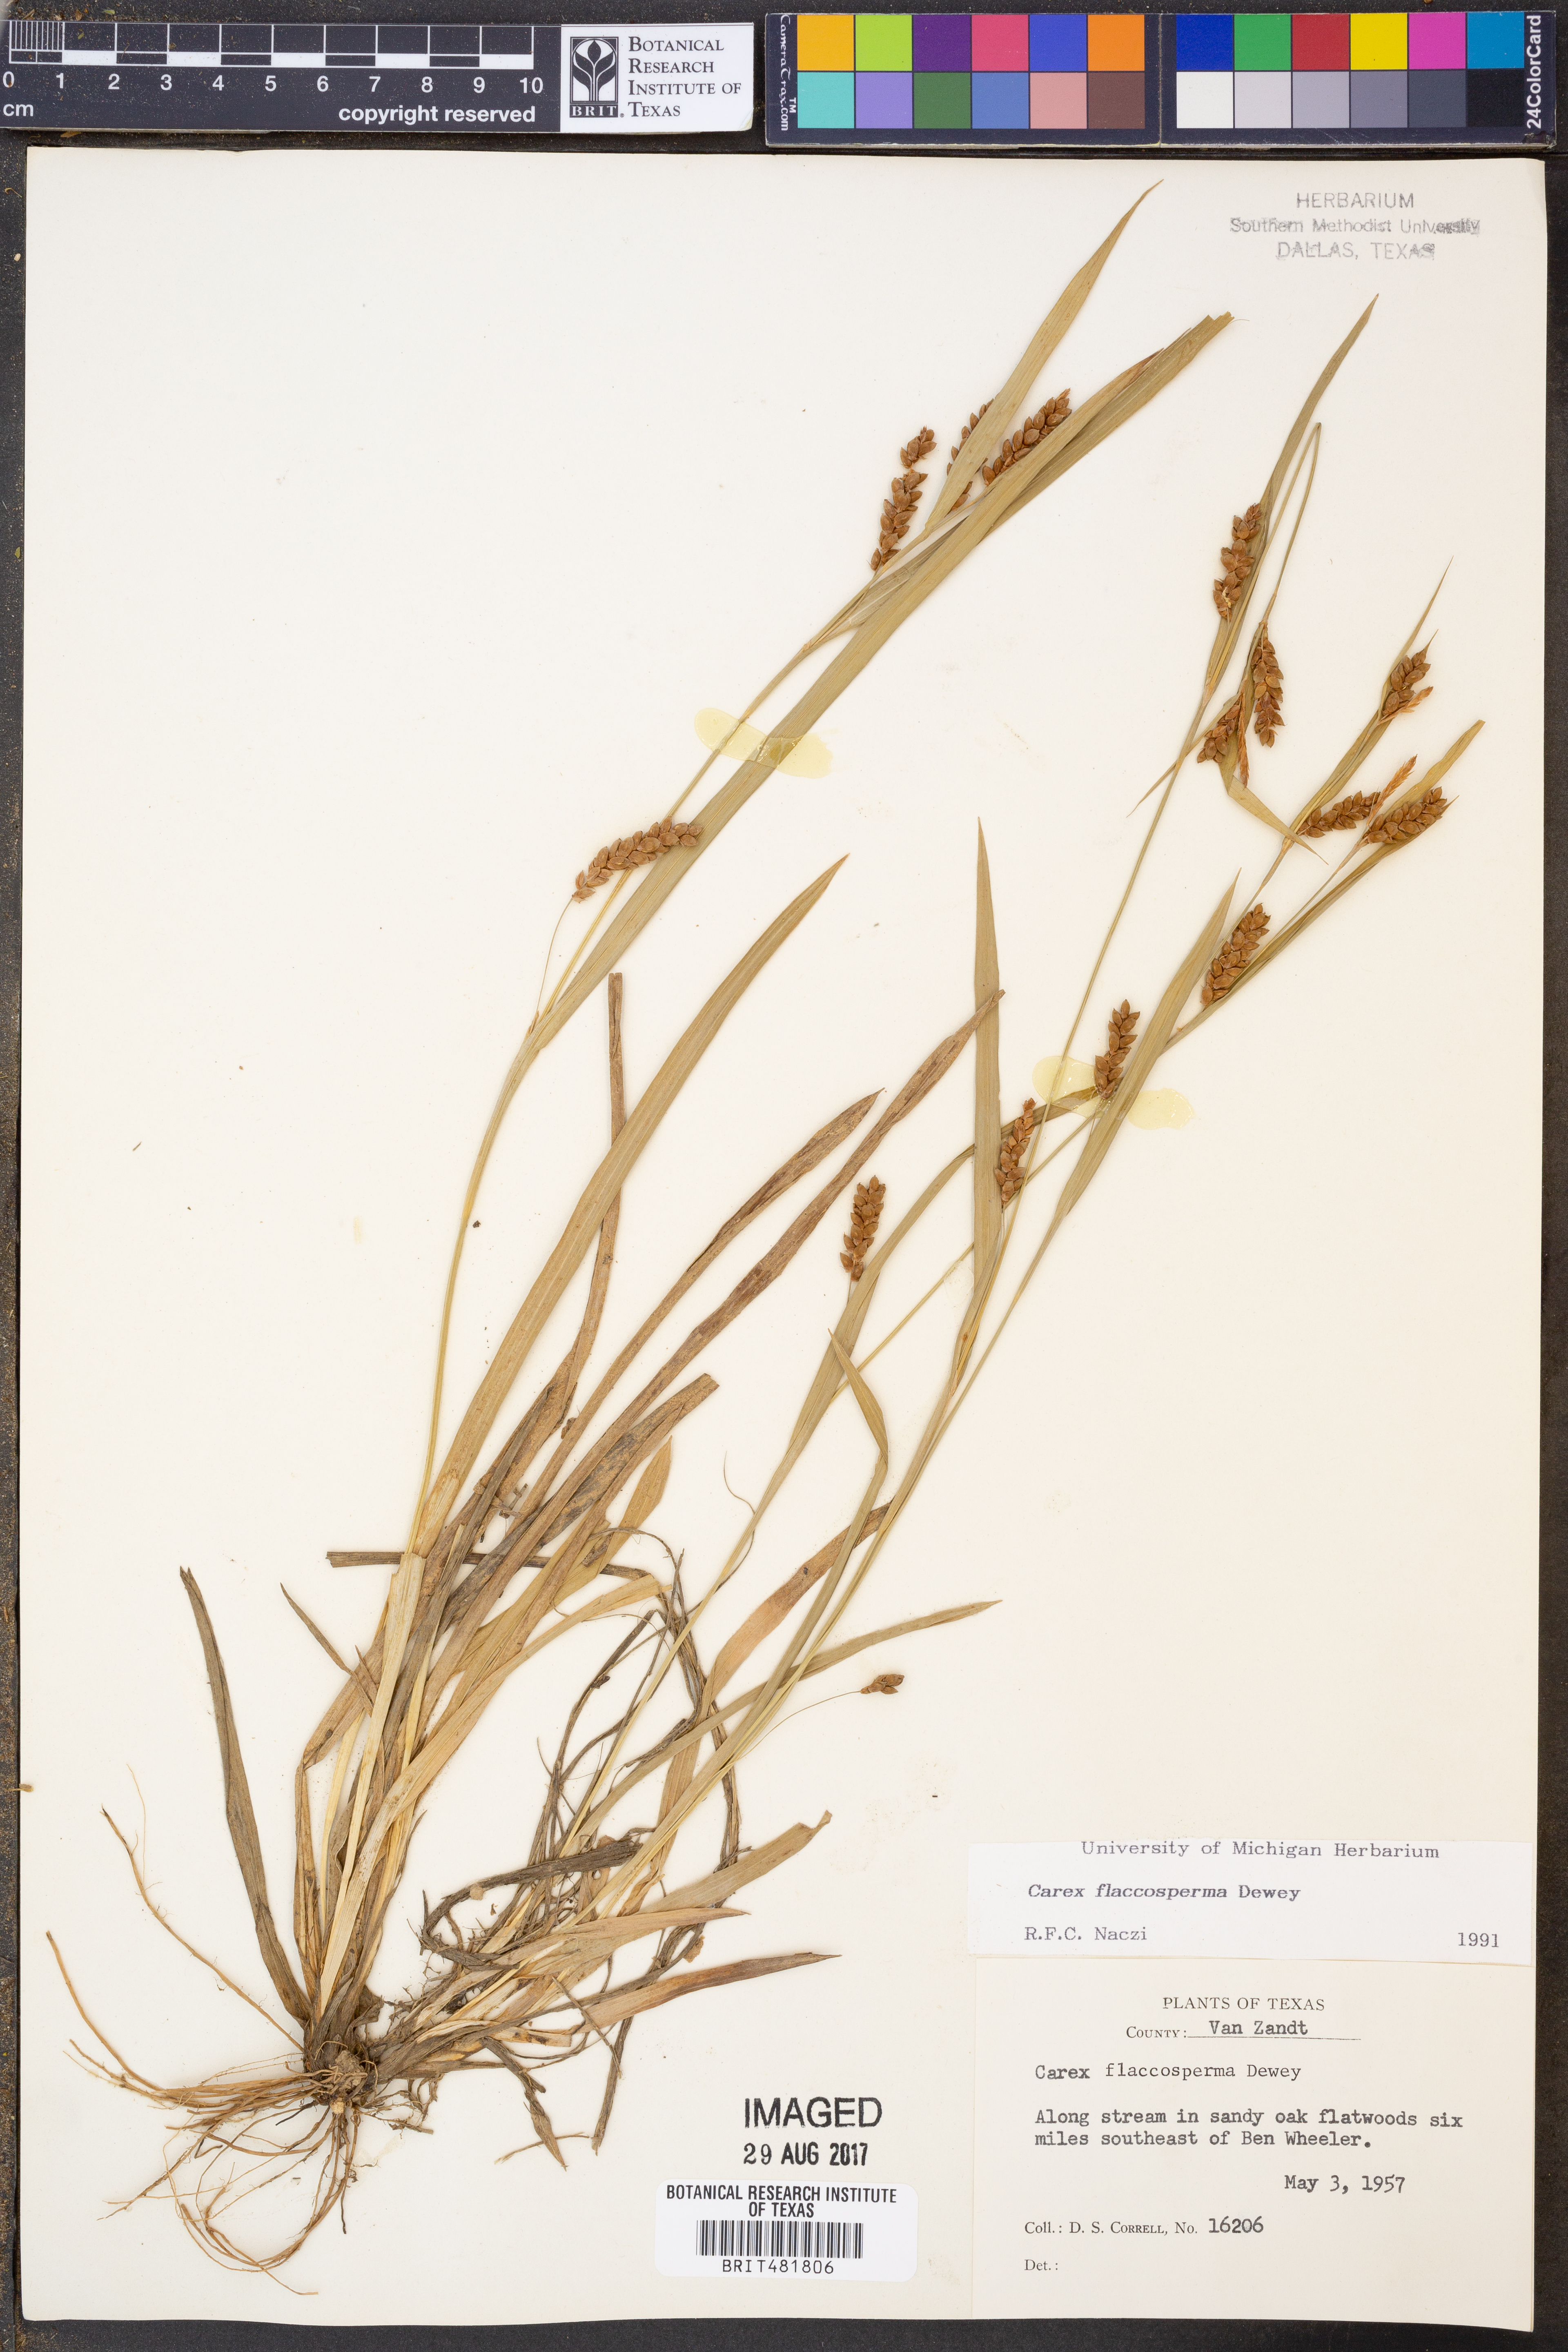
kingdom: Plantae
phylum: Tracheophyta
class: Liliopsida
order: Poales
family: Cyperaceae
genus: Carex
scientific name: Carex flaccosperma
